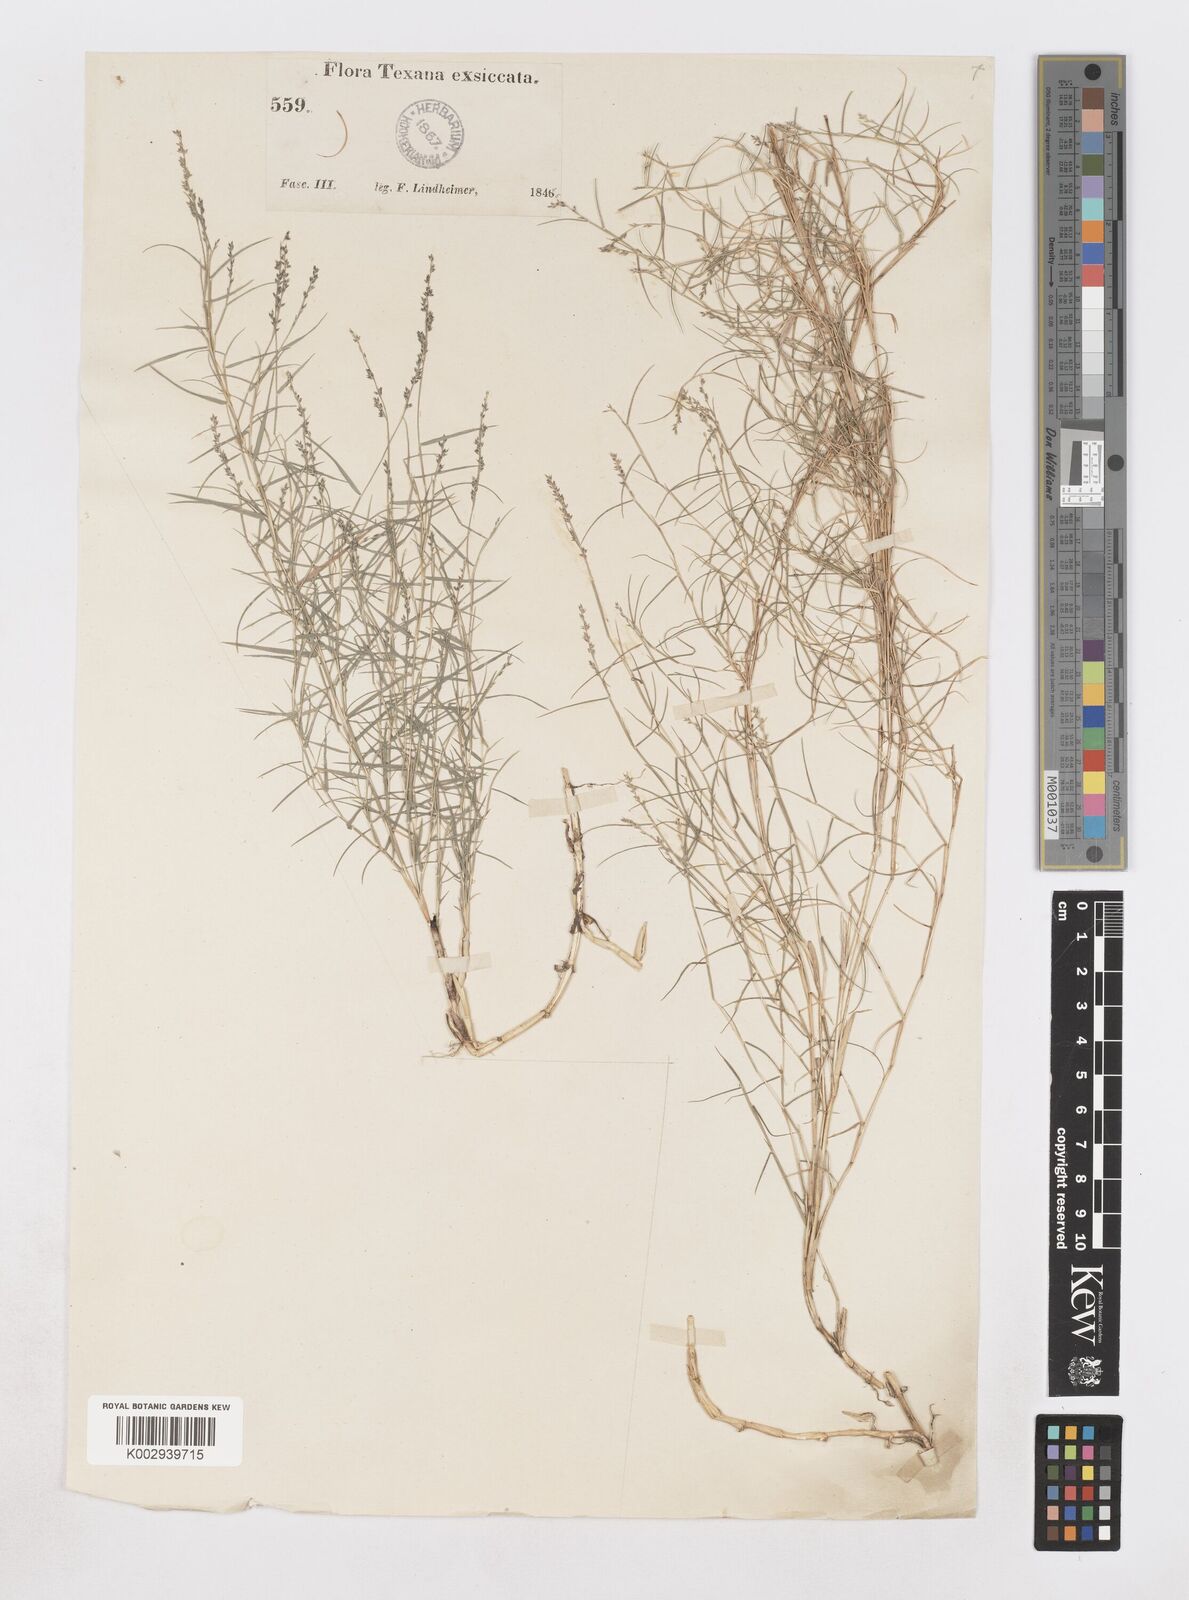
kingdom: Plantae
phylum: Tracheophyta
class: Liliopsida
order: Poales
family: Poaceae
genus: Muhlenbergia
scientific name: Muhlenbergia utilis
